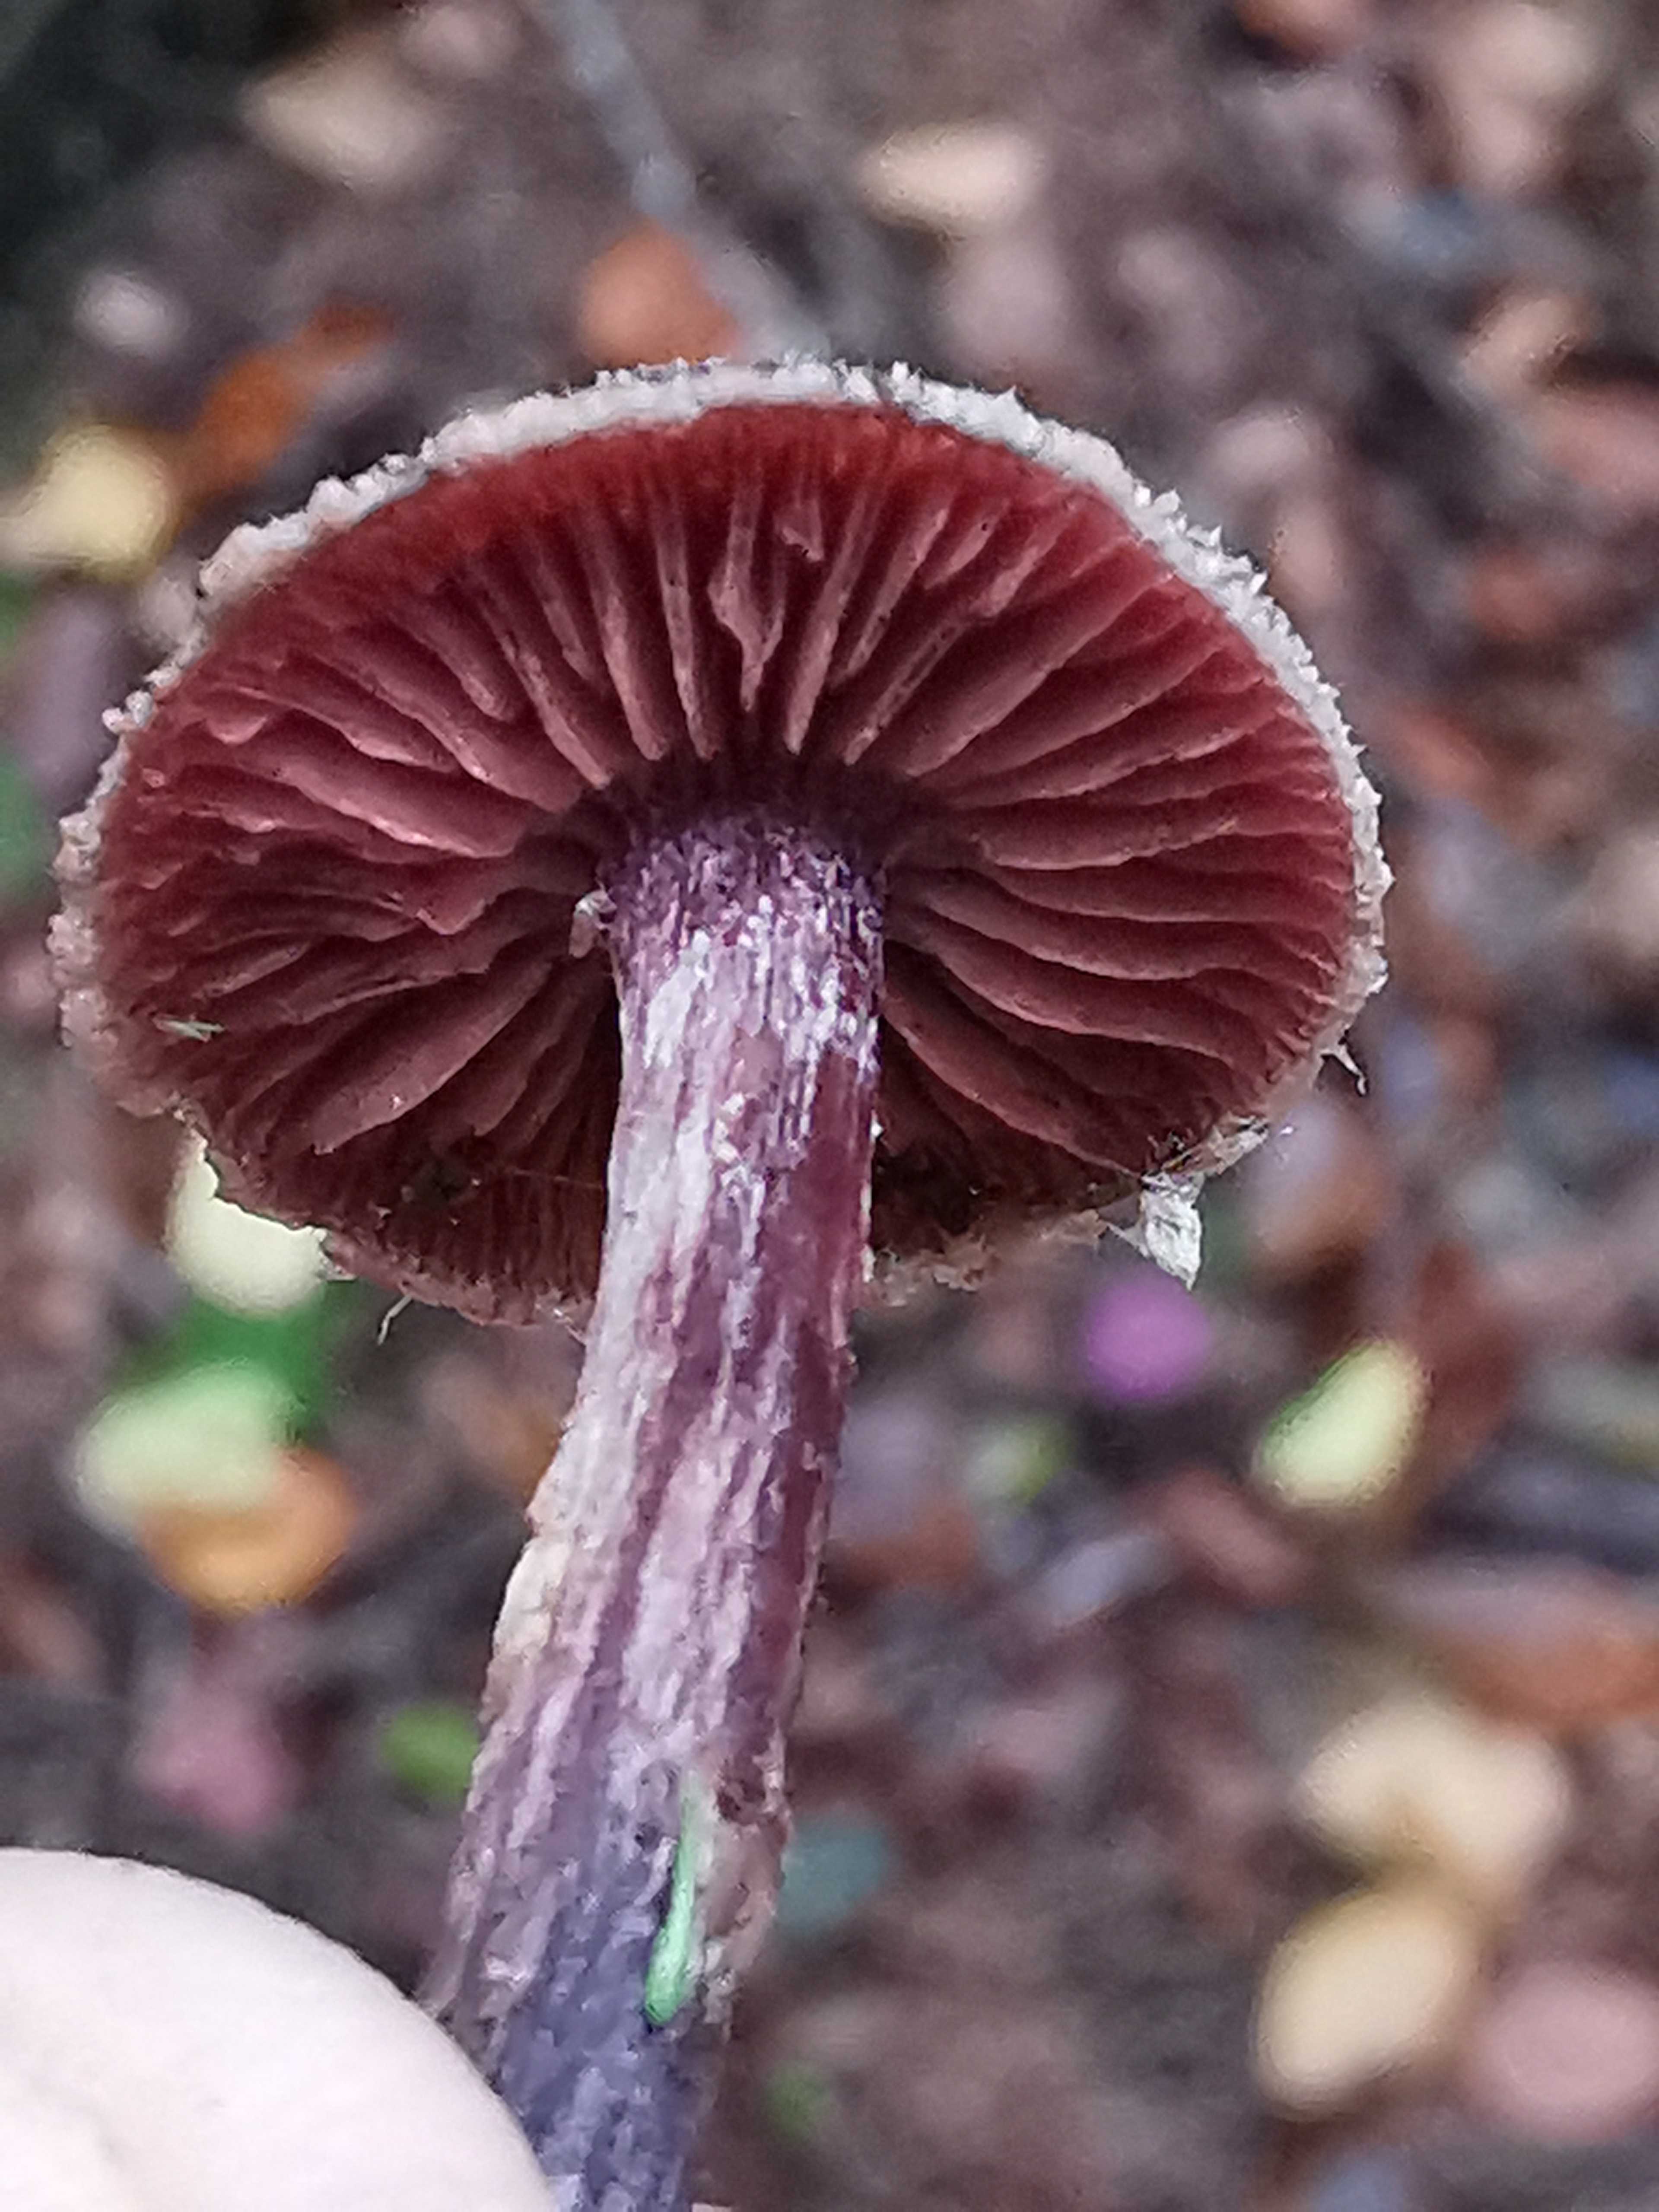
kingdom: Fungi
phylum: Basidiomycota
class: Agaricomycetes
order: Agaricales
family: Cortinariaceae
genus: Cortinarius
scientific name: Cortinarius
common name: pelargonie-slørhat
